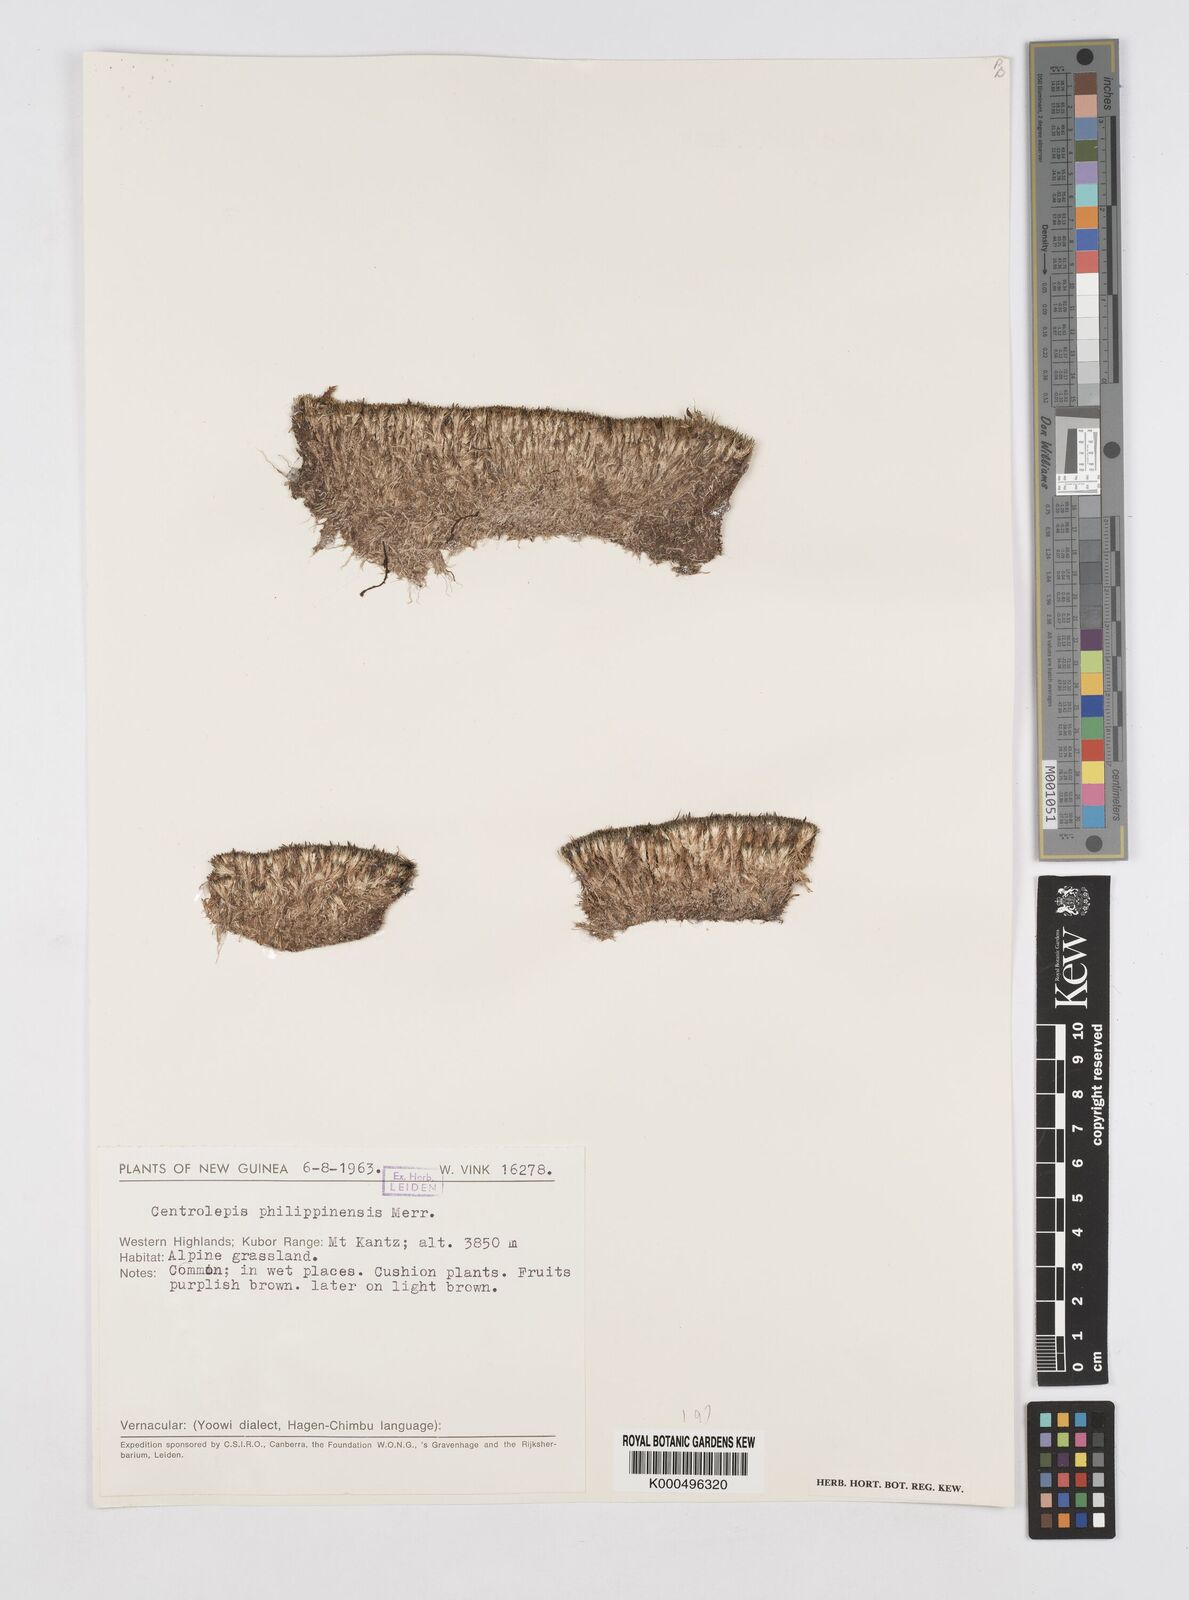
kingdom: Plantae
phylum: Tracheophyta
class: Liliopsida
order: Poales
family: Restionaceae
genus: Centrolepis
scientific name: Centrolepis philippinensis
